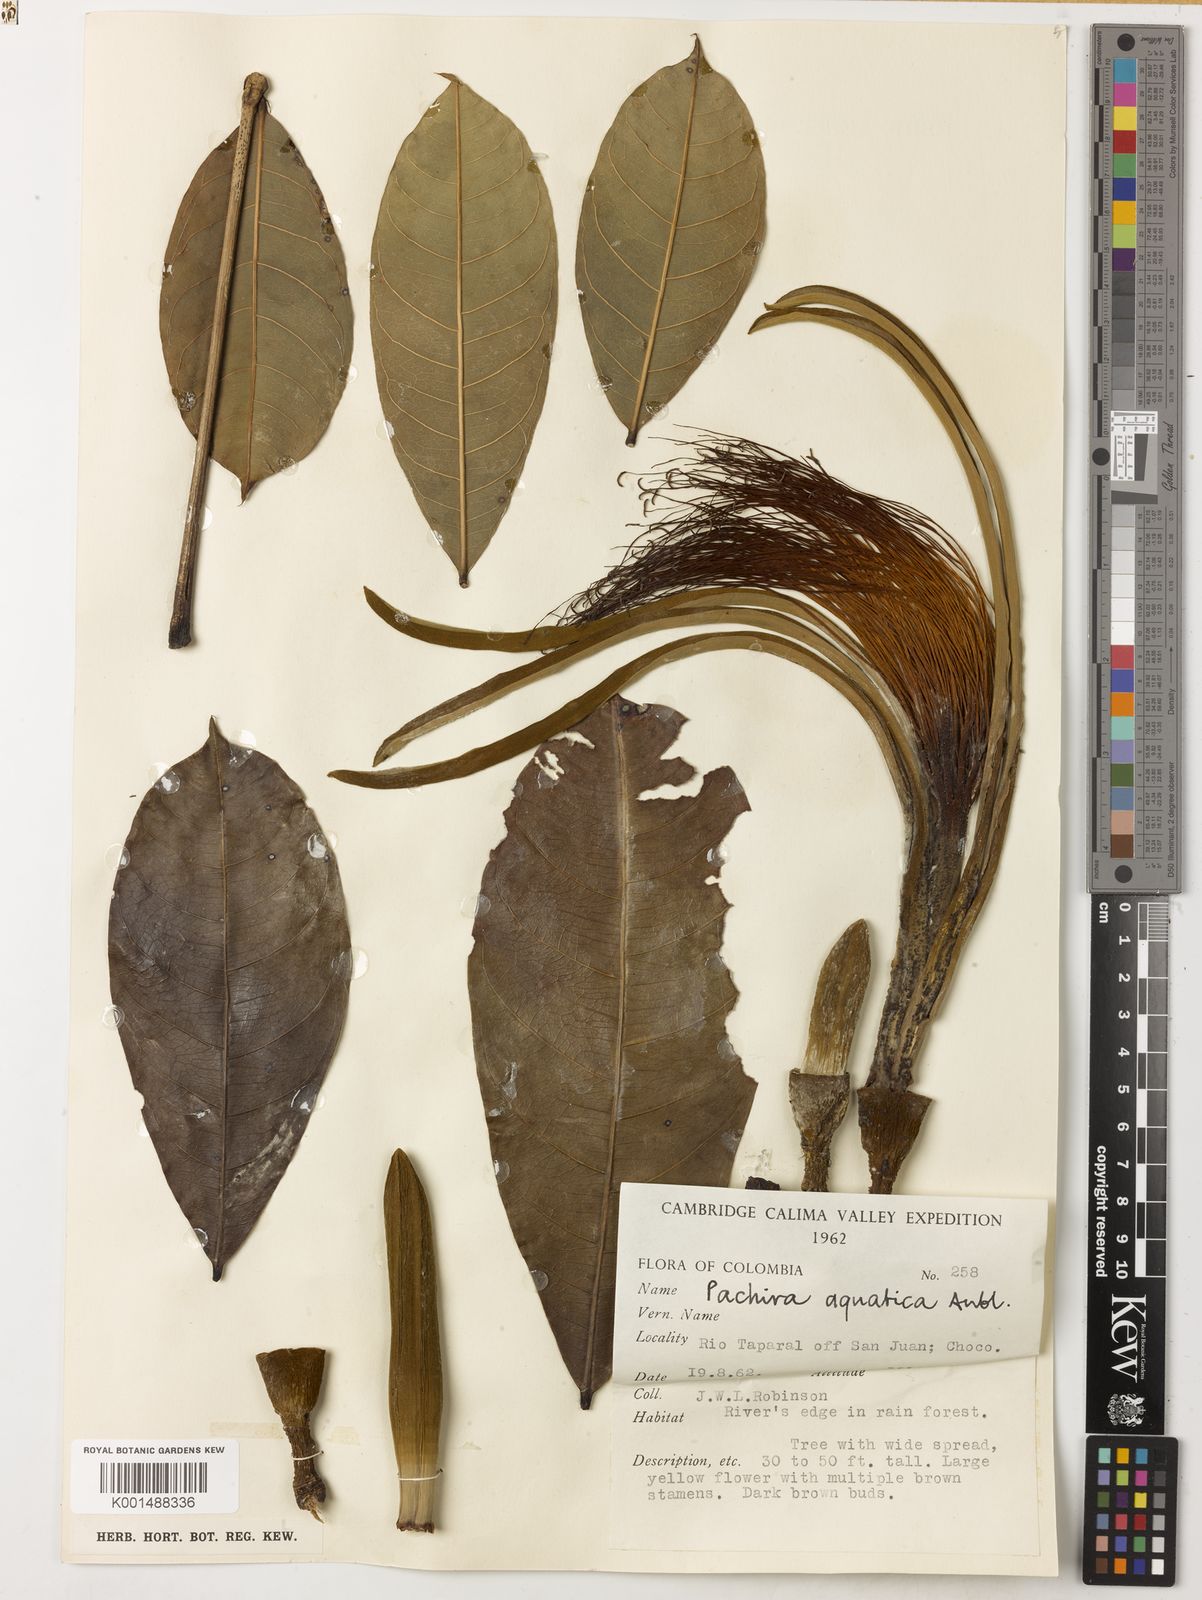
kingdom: Plantae
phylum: Tracheophyta
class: Magnoliopsida
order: Malvales
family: Malvaceae
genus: Pachira
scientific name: Pachira aquatica
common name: Provision-tree
